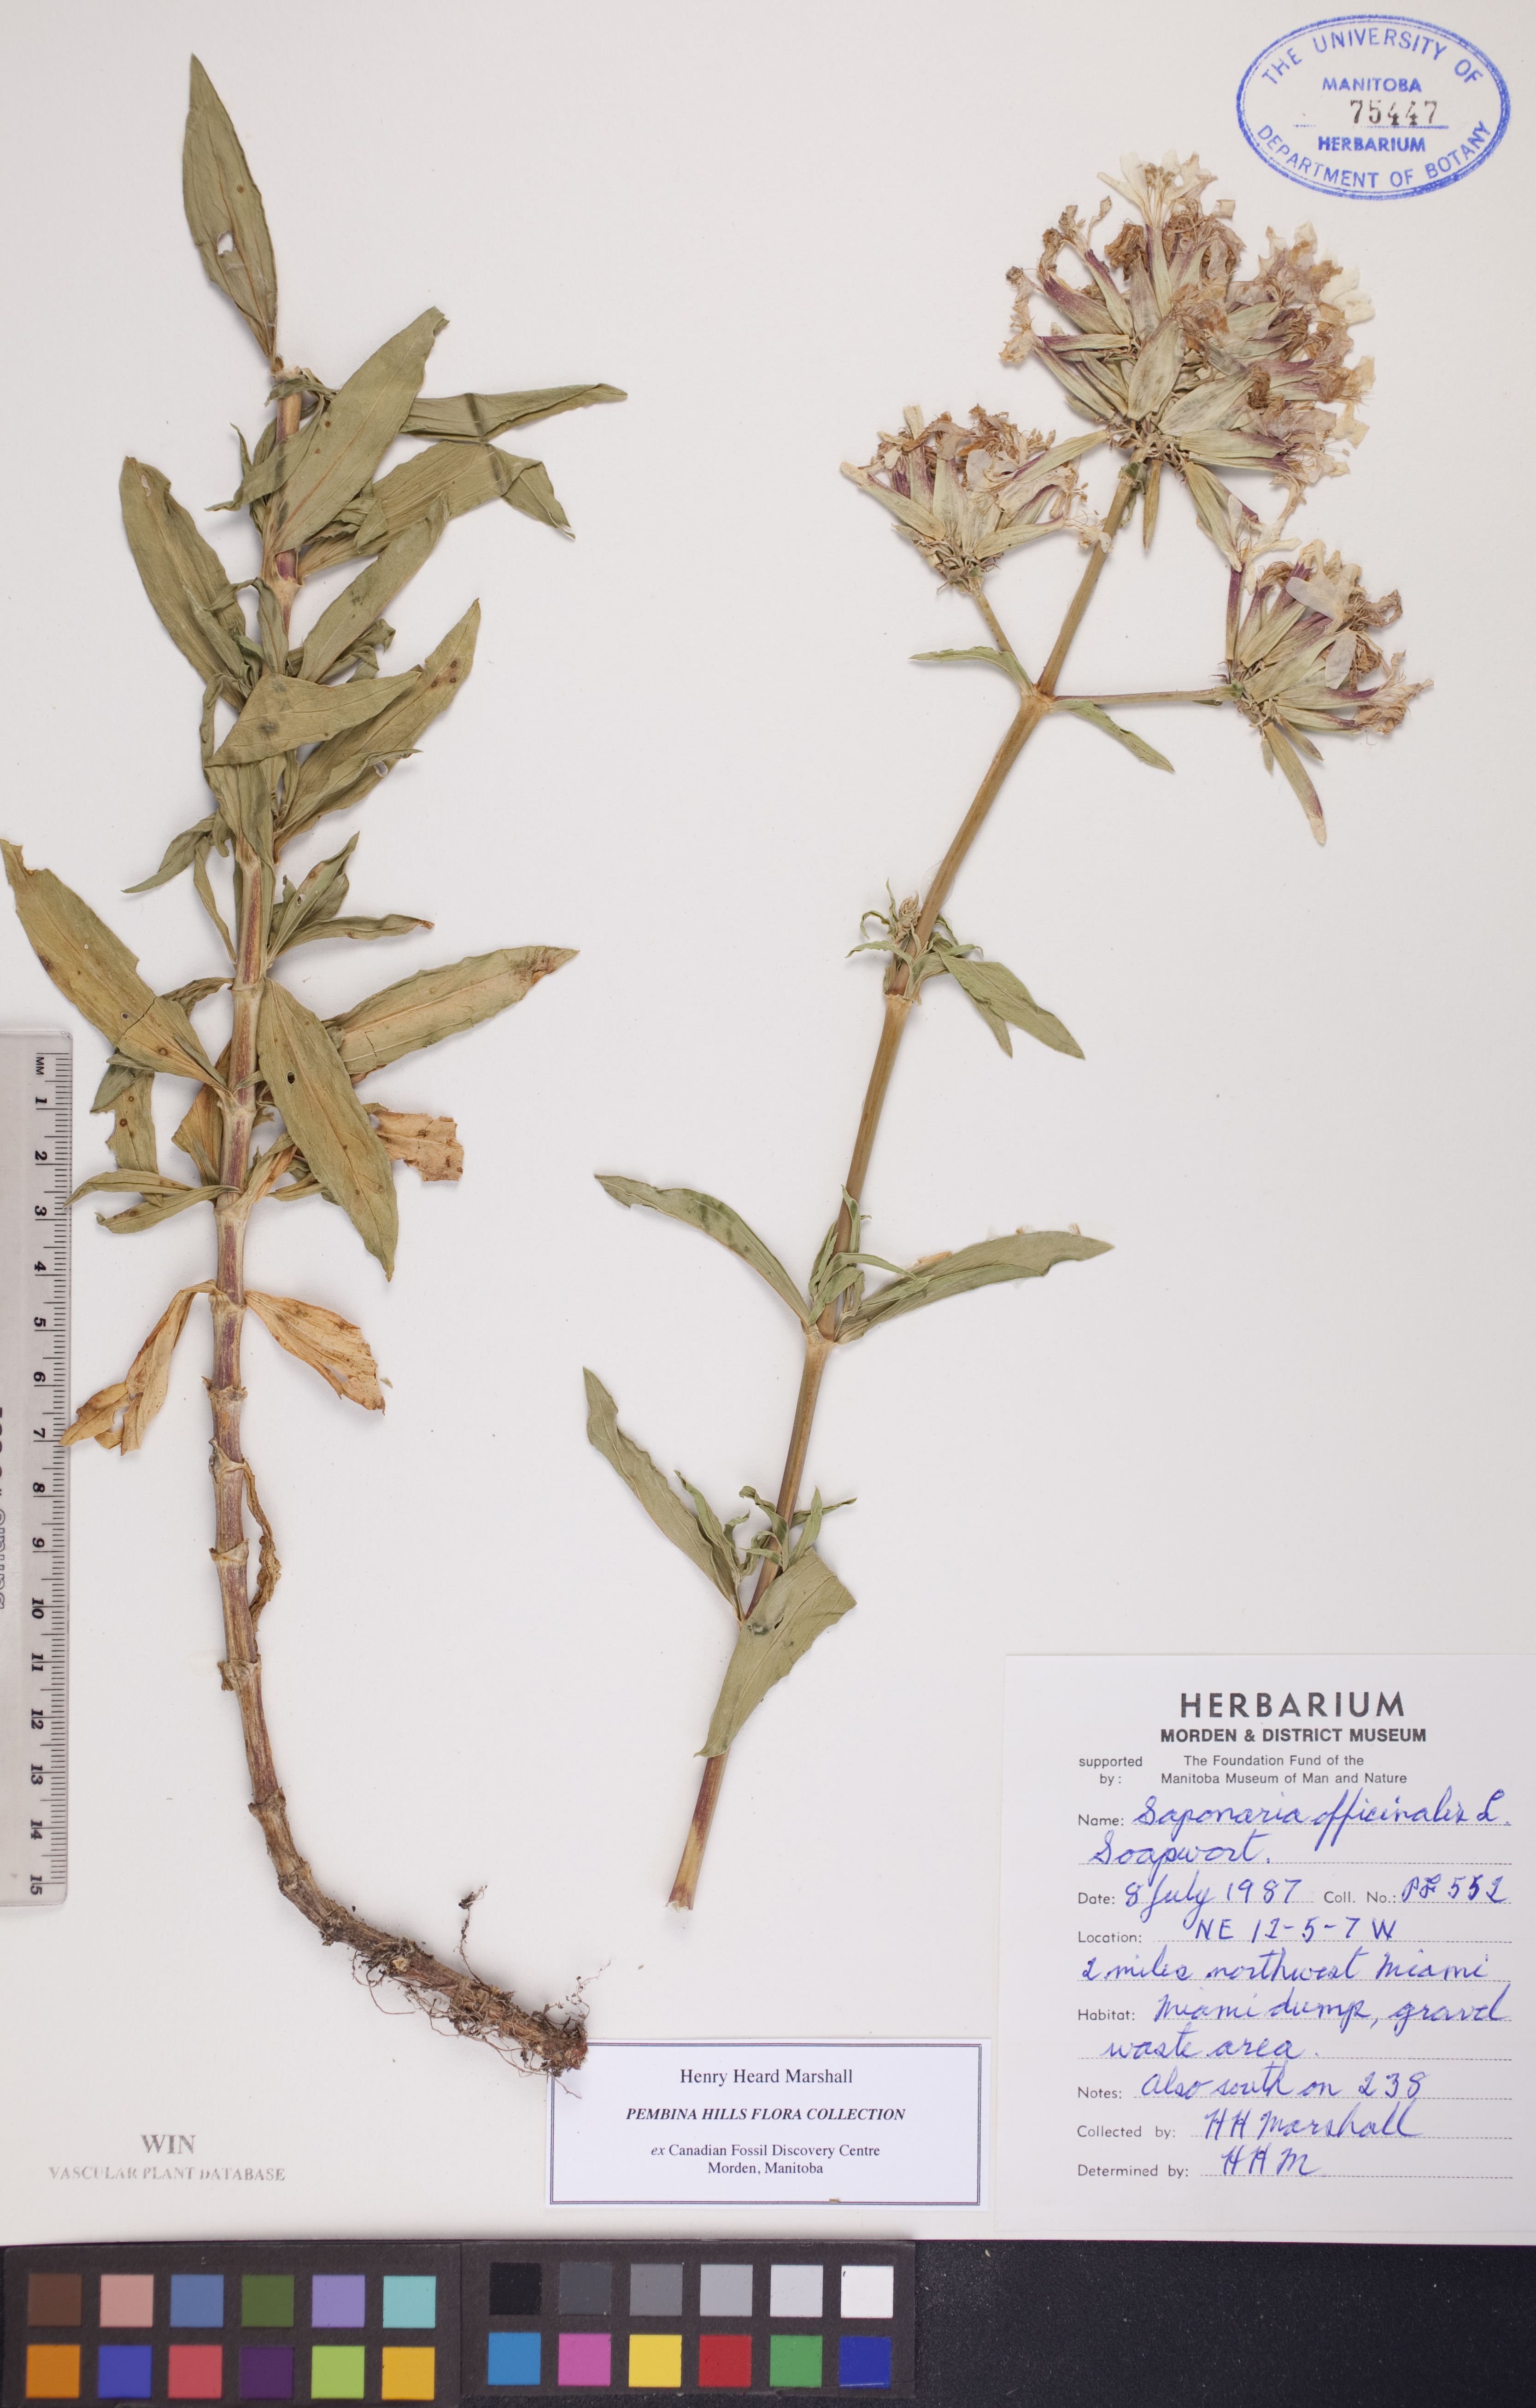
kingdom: Plantae
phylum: Tracheophyta
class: Magnoliopsida
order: Caryophyllales
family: Caryophyllaceae
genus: Saponaria
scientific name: Saponaria officinalis
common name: Soapwort
